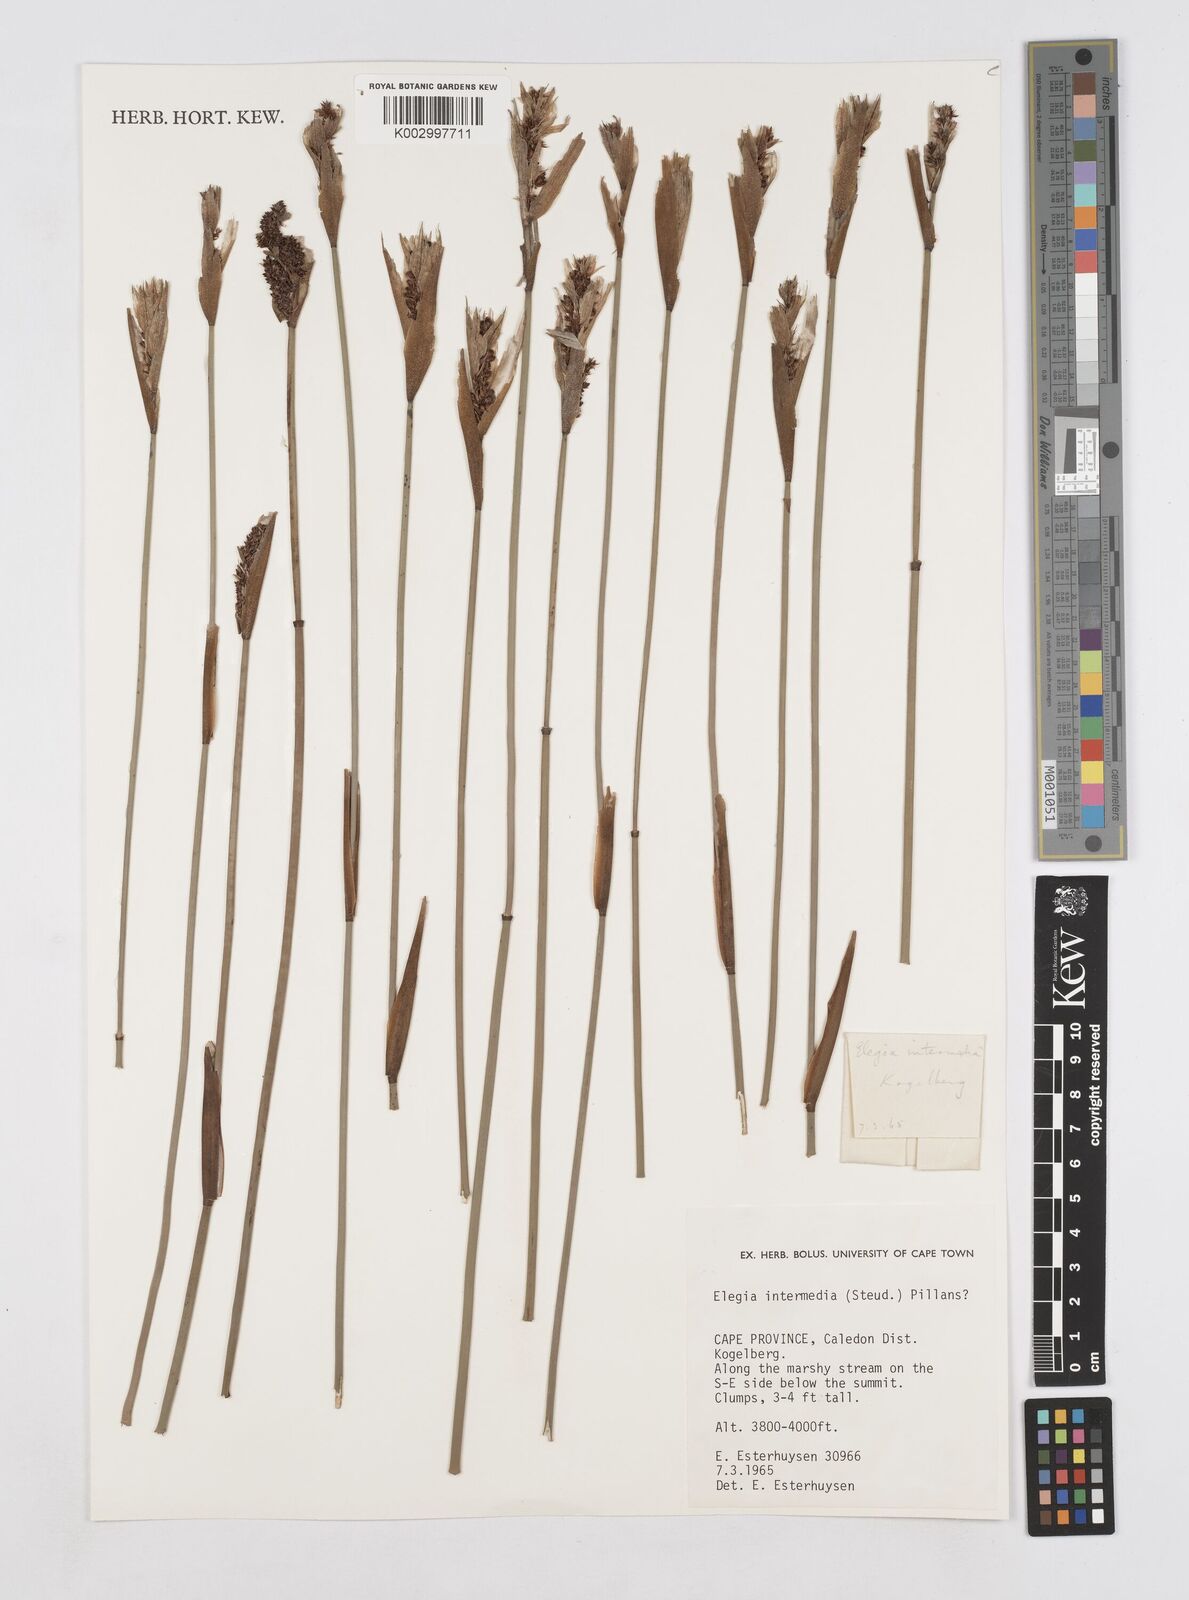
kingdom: Plantae
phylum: Tracheophyta
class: Liliopsida
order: Poales
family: Restionaceae
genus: Elegia
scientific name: Elegia intermedia
